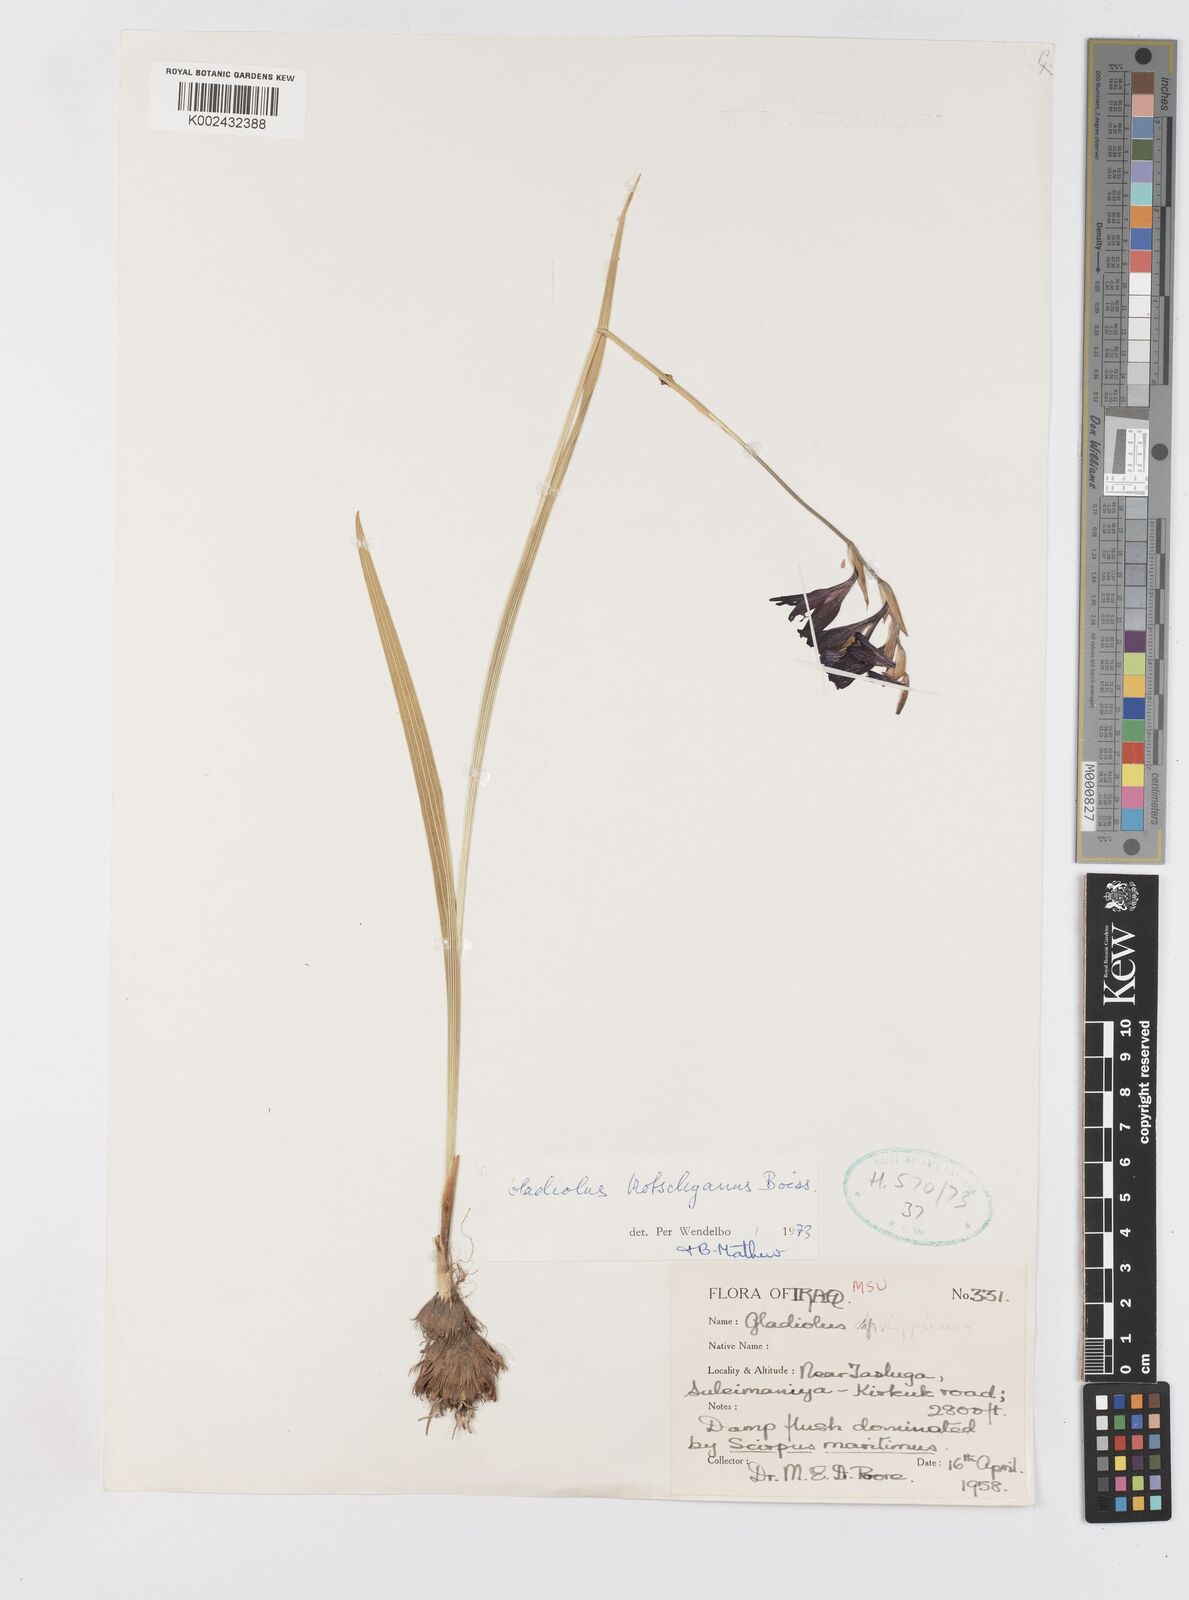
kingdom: Plantae
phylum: Tracheophyta
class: Liliopsida
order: Asparagales
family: Iridaceae
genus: Gladiolus
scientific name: Gladiolus kotschyanus
